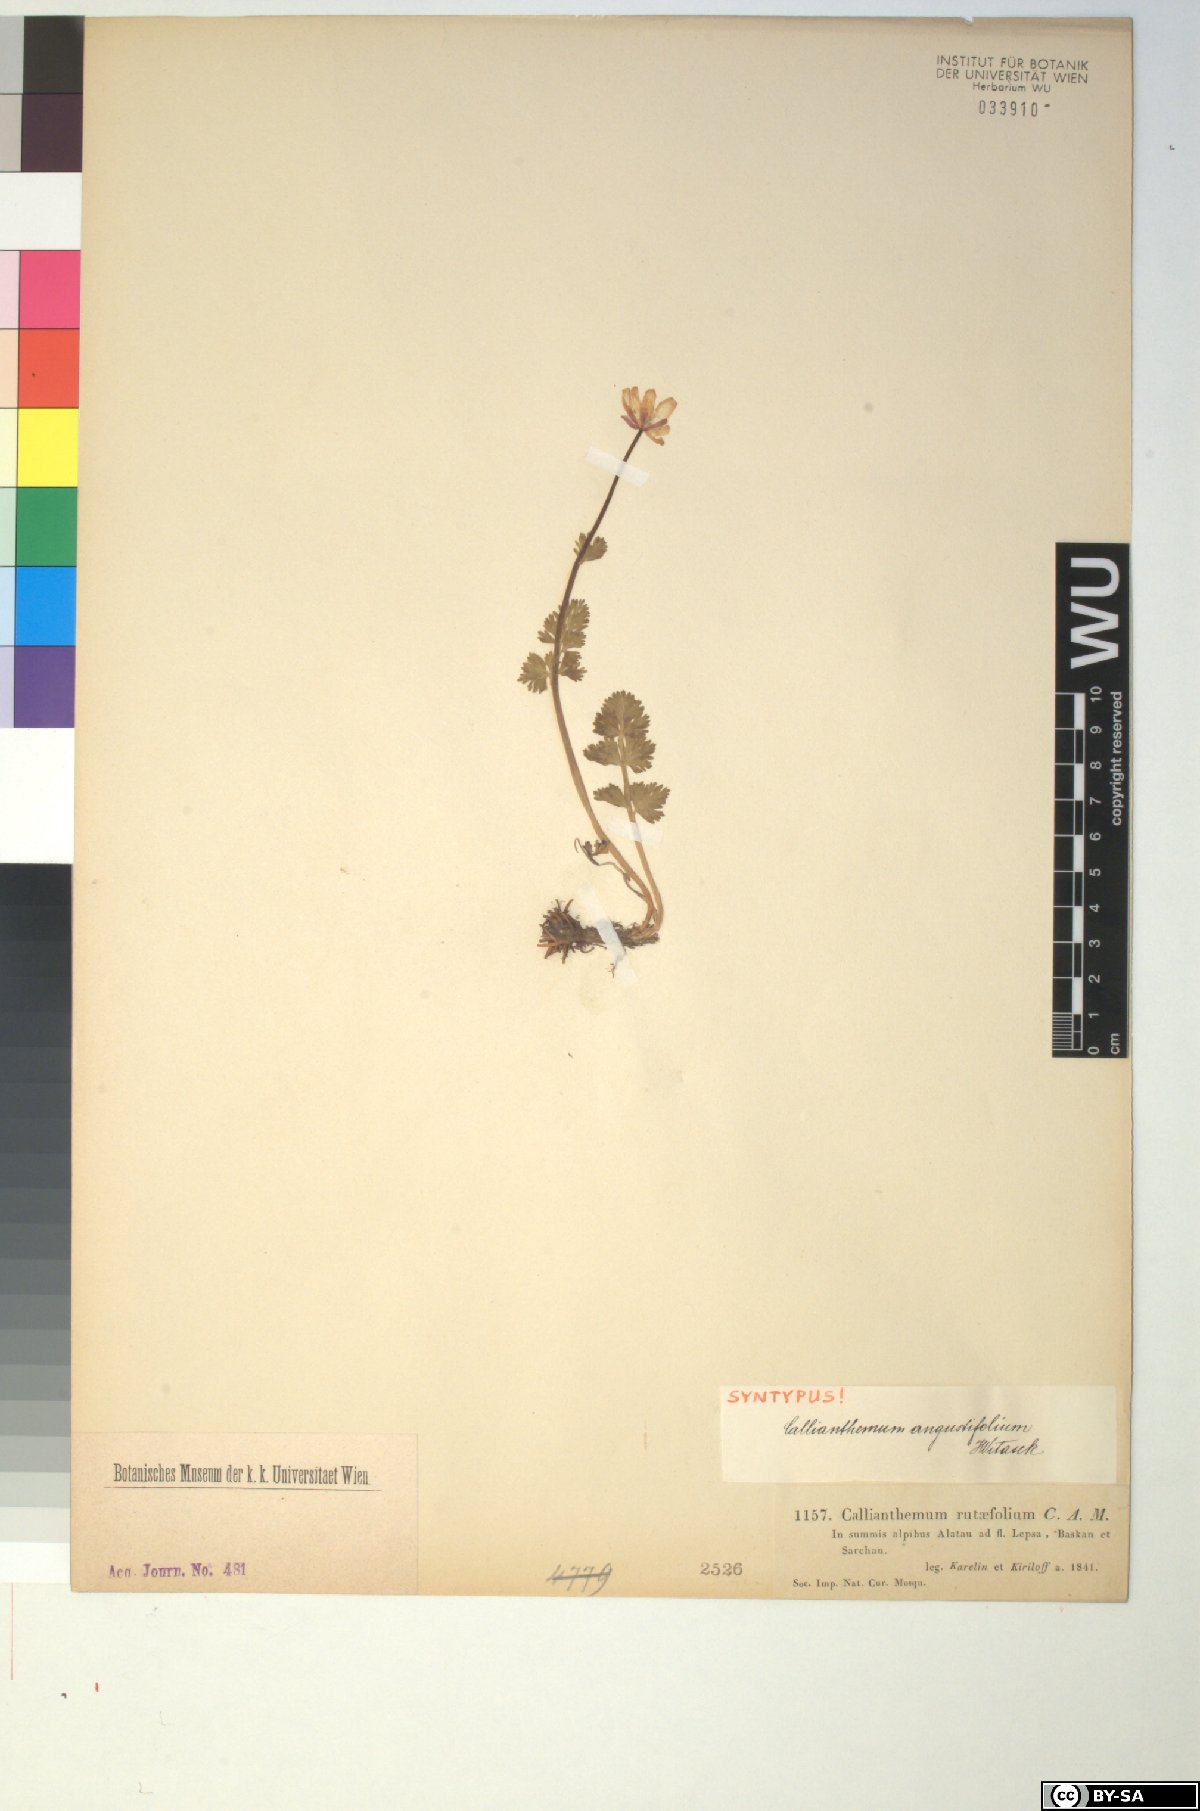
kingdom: Plantae
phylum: Tracheophyta
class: Magnoliopsida
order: Ranunculales
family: Ranunculaceae
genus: Callianthemum
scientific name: Callianthemum angustifolium
